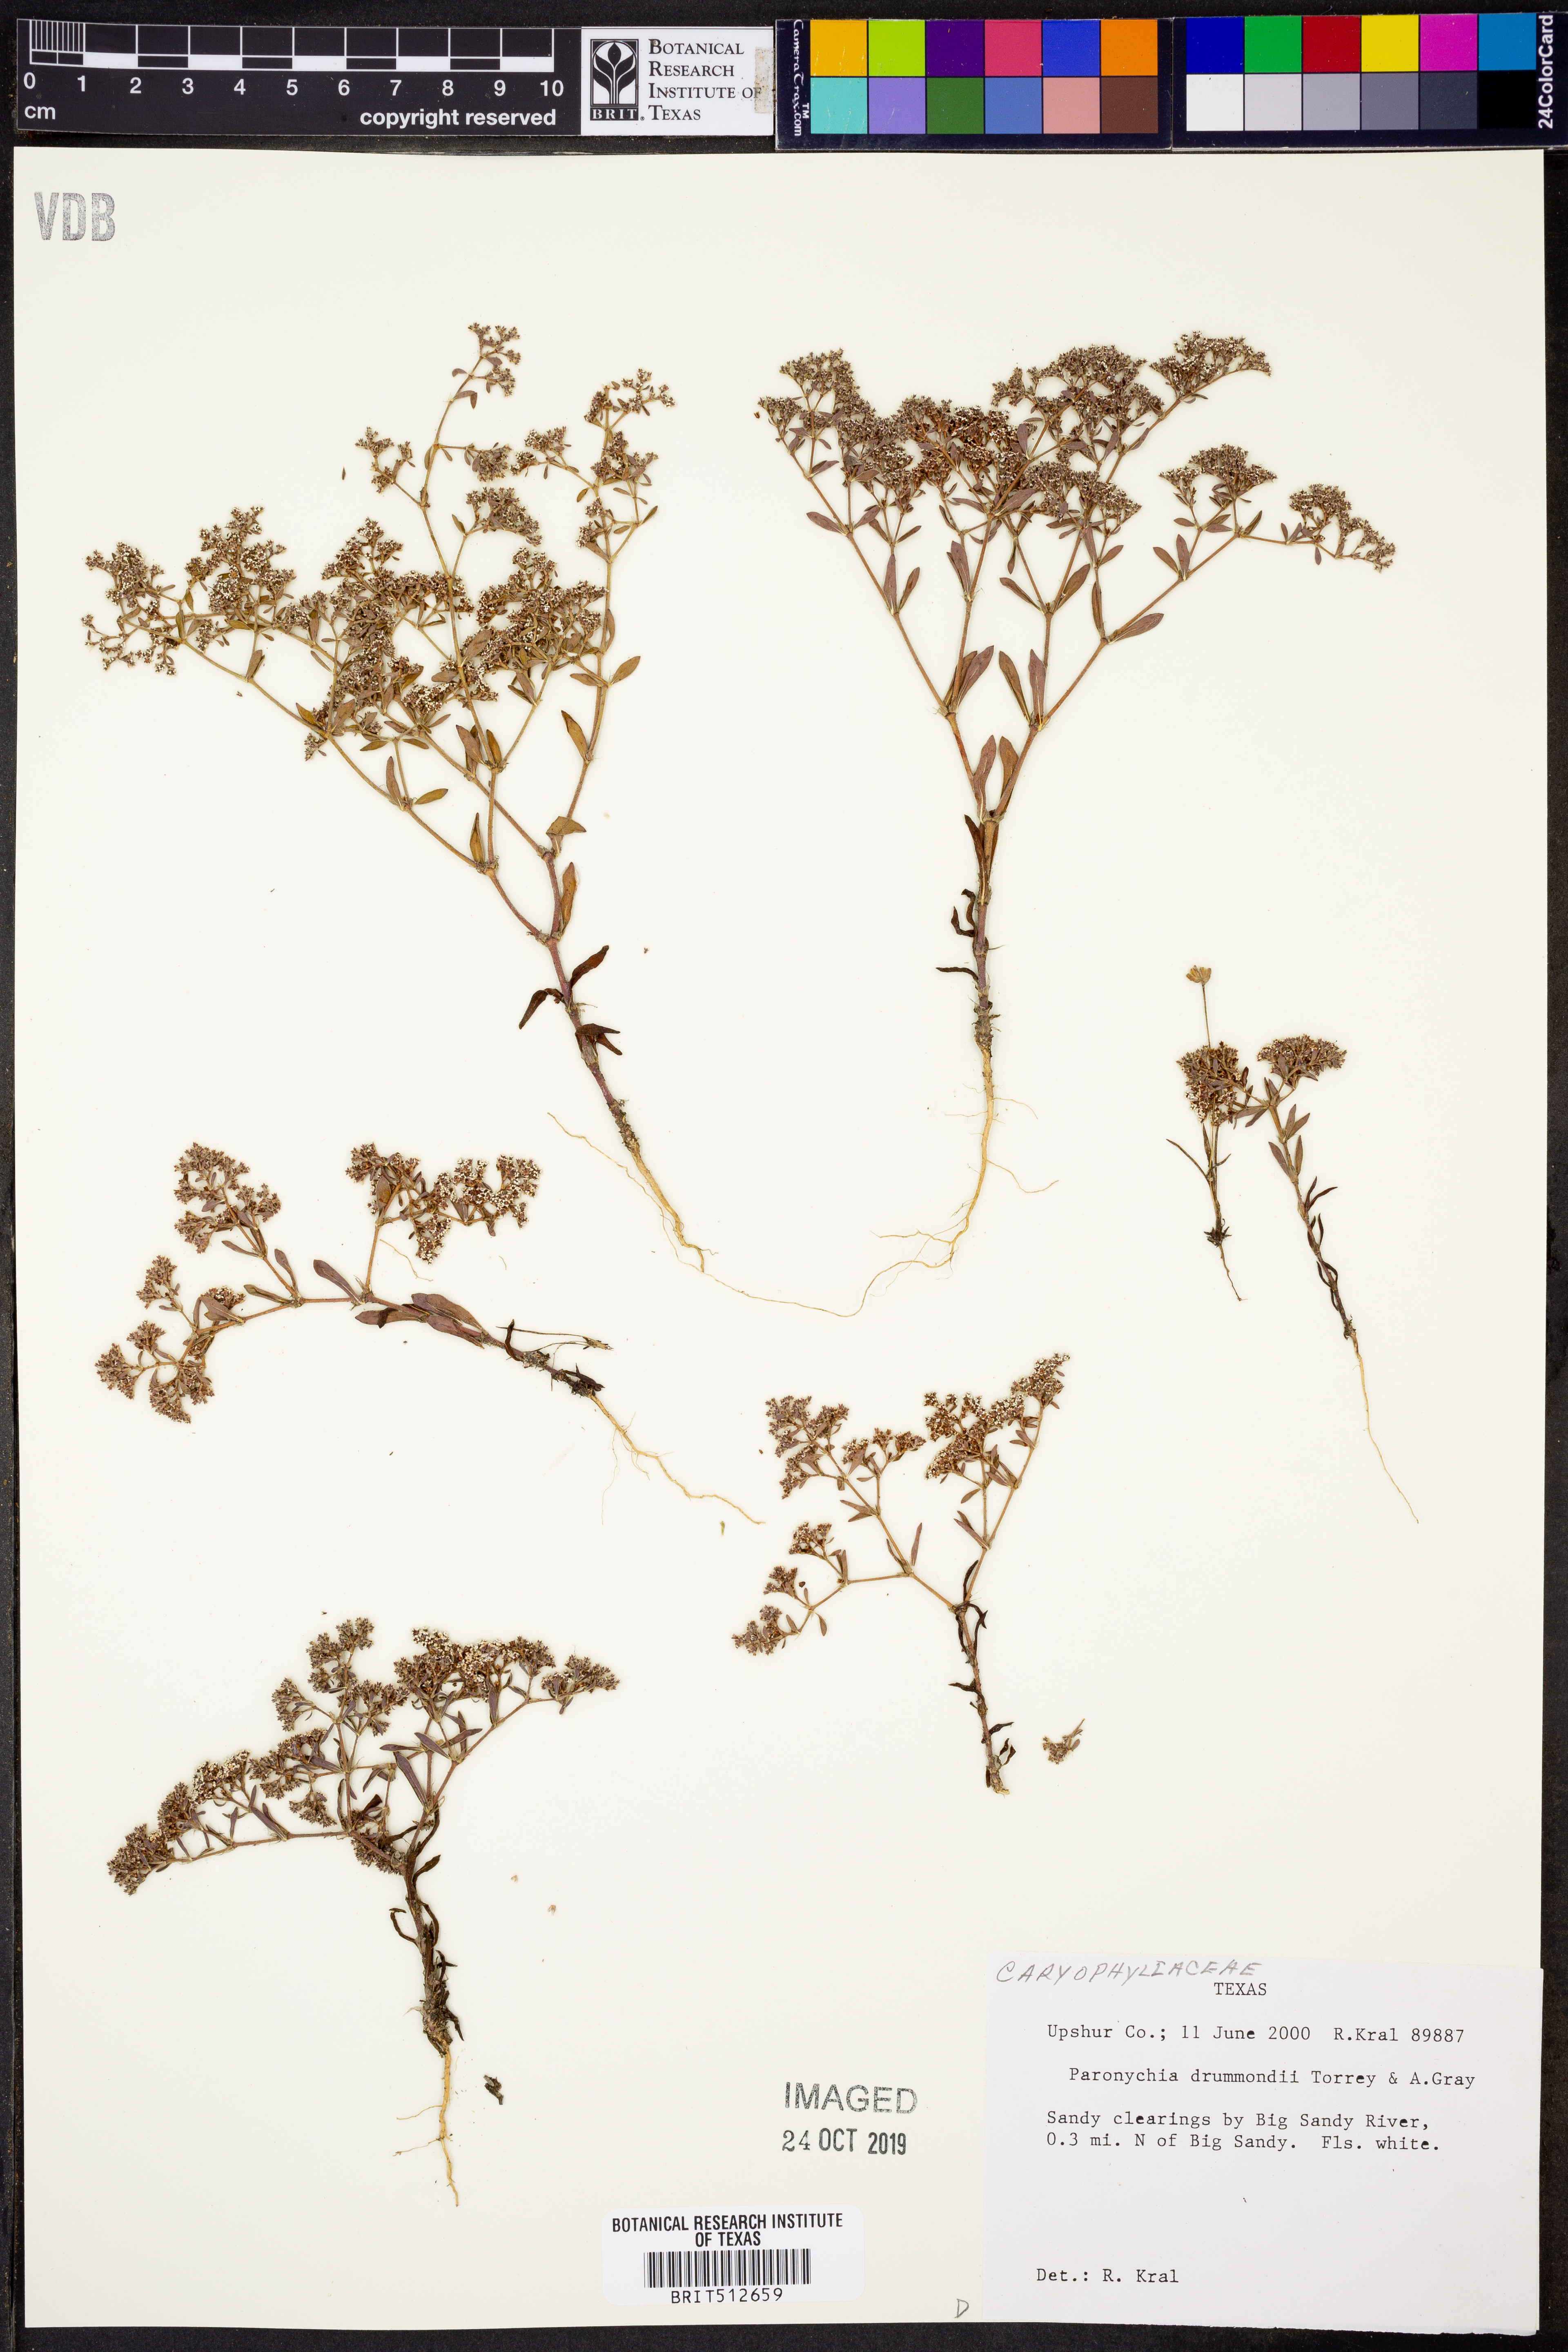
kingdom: Plantae
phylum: Tracheophyta
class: Magnoliopsida
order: Caryophyllales
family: Caryophyllaceae
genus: Paronychia
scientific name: Paronychia drummondii
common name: Drummond's nailwort
